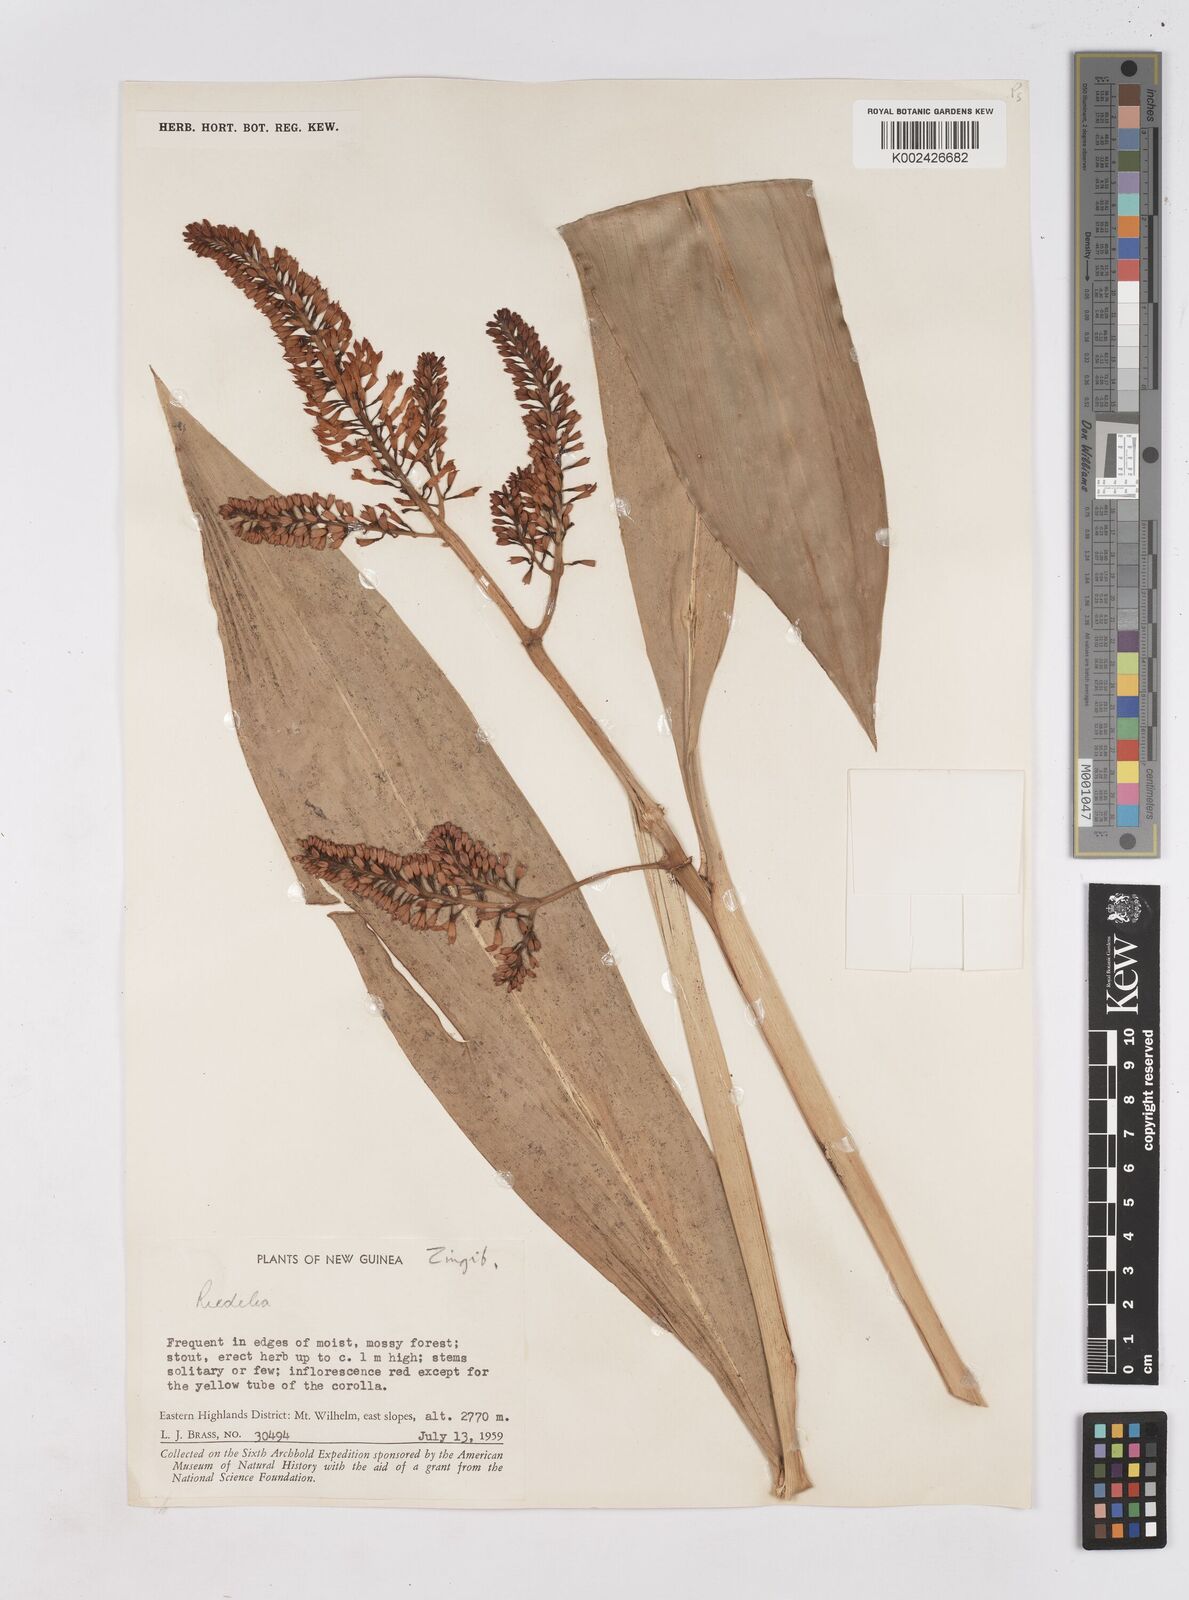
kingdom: Plantae
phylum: Tracheophyta
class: Liliopsida
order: Zingiberales
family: Zingiberaceae
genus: Riedelia
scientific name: Riedelia
